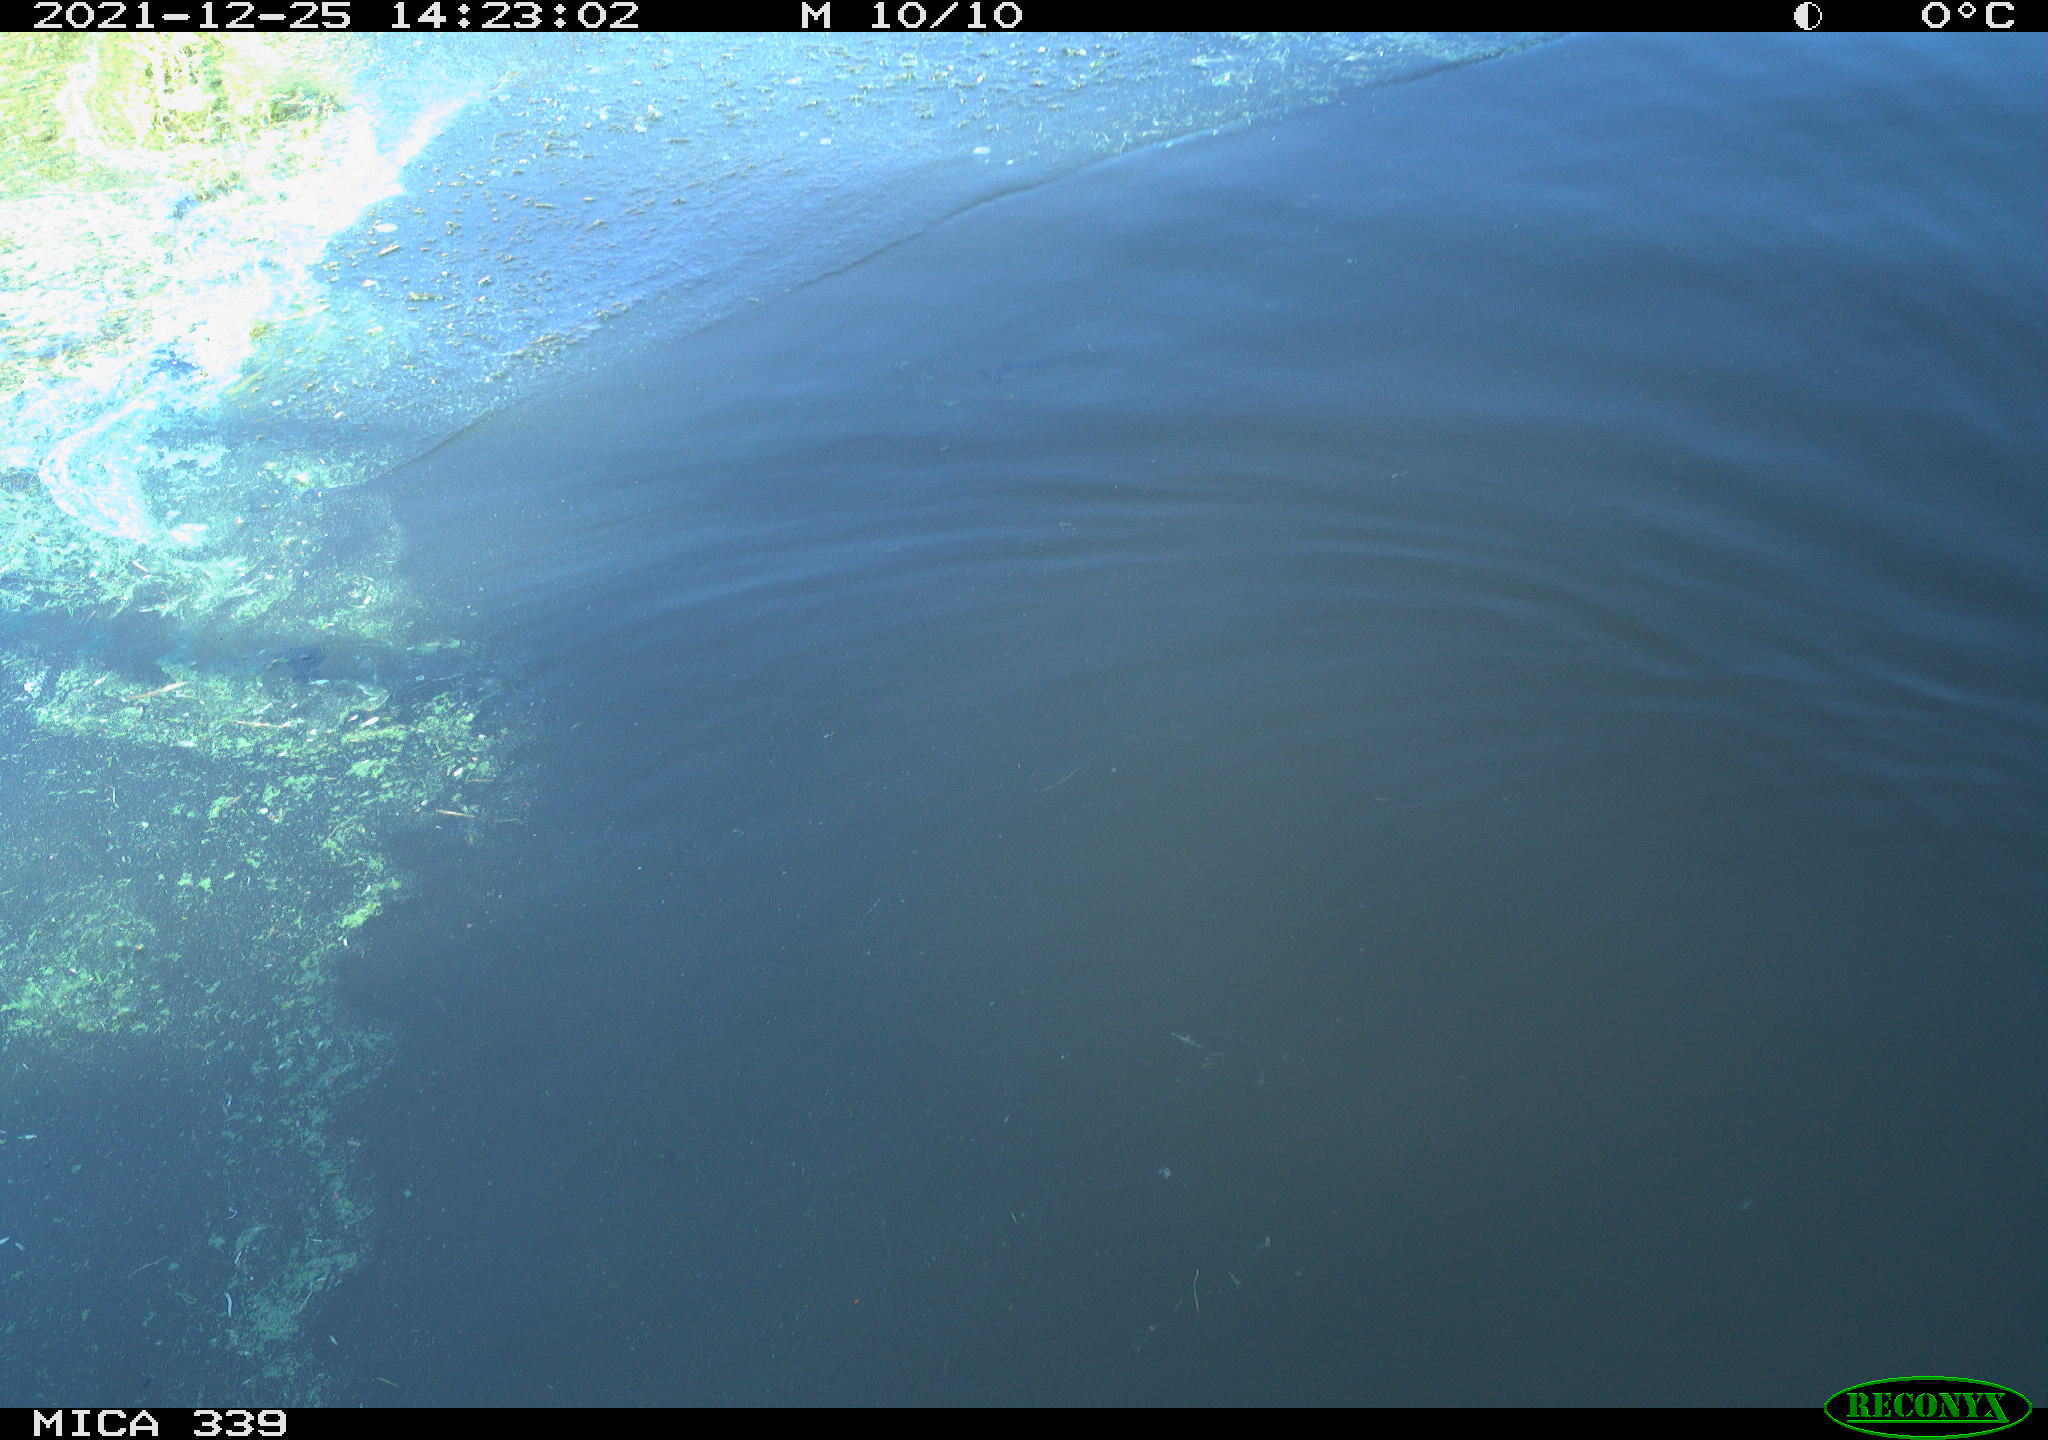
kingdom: Animalia
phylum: Chordata
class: Aves
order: Gruiformes
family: Rallidae
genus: Gallinula
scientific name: Gallinula chloropus
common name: Common moorhen
